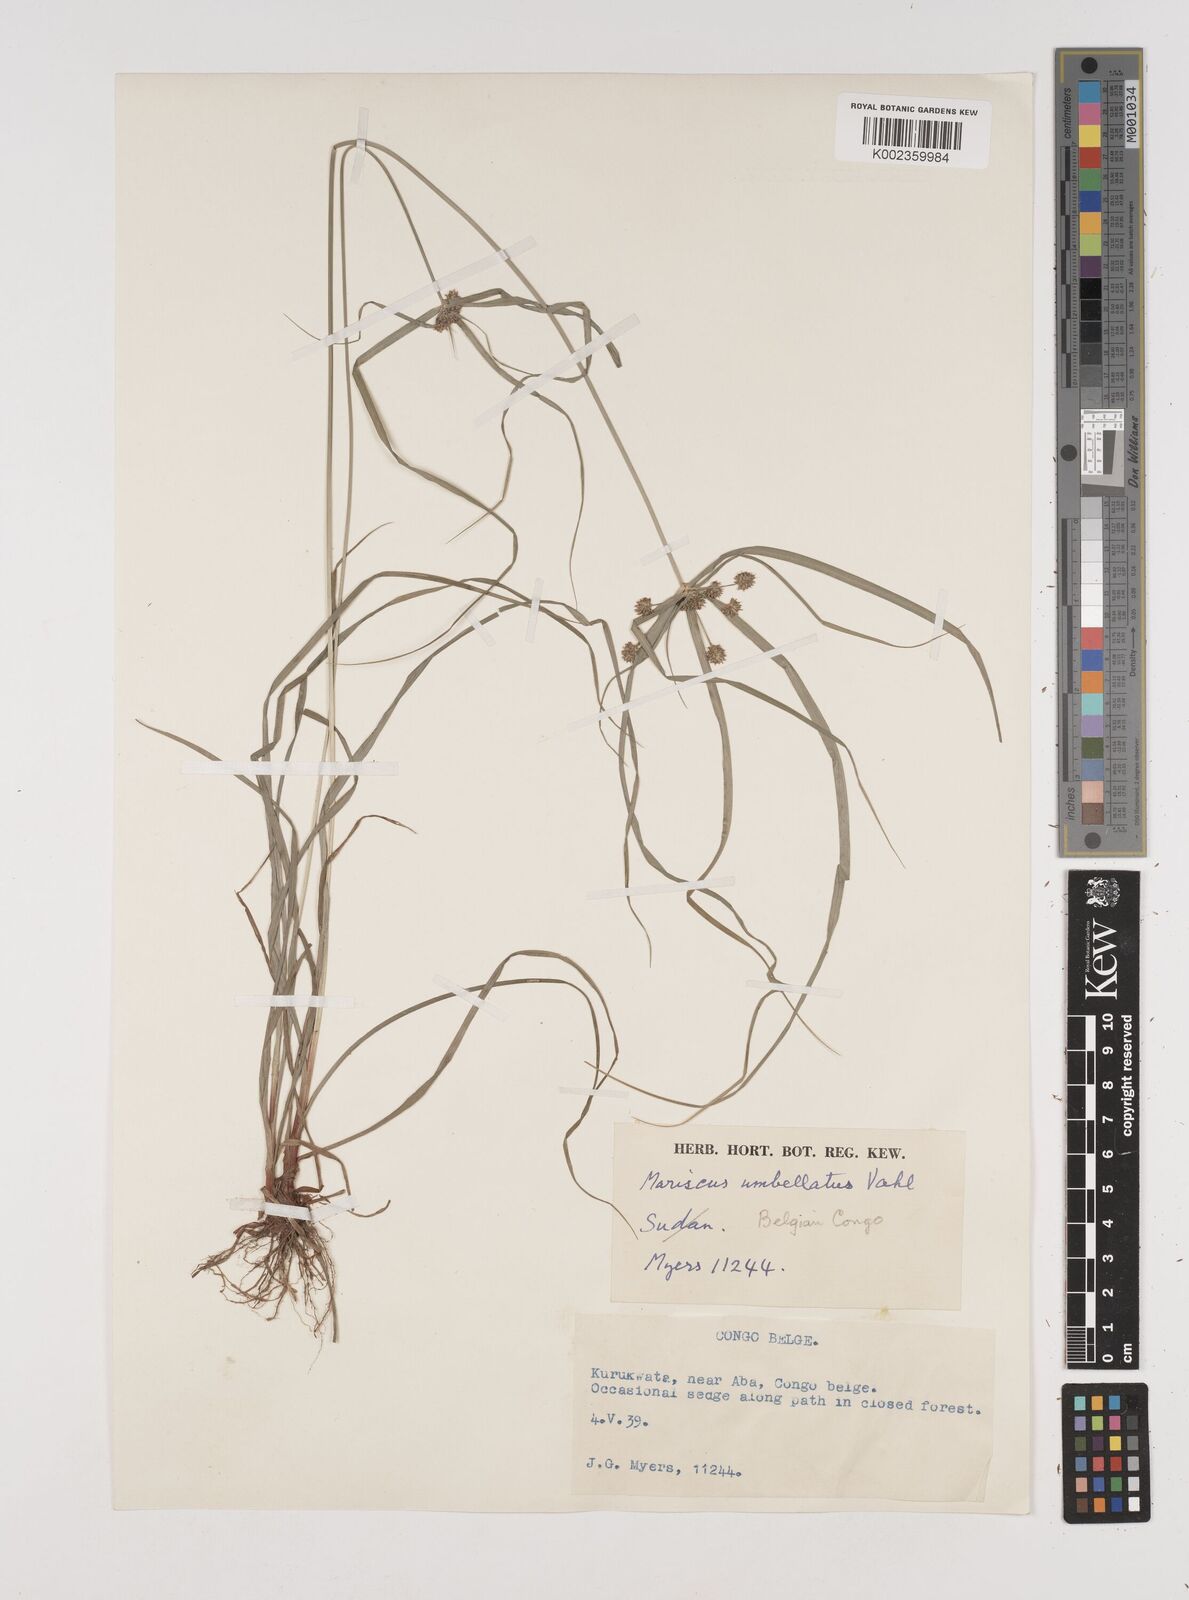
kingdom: Plantae
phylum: Tracheophyta
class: Liliopsida
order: Poales
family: Cyperaceae
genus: Cyperus
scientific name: Cyperus cyperoides
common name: Pacific island flat sedge
